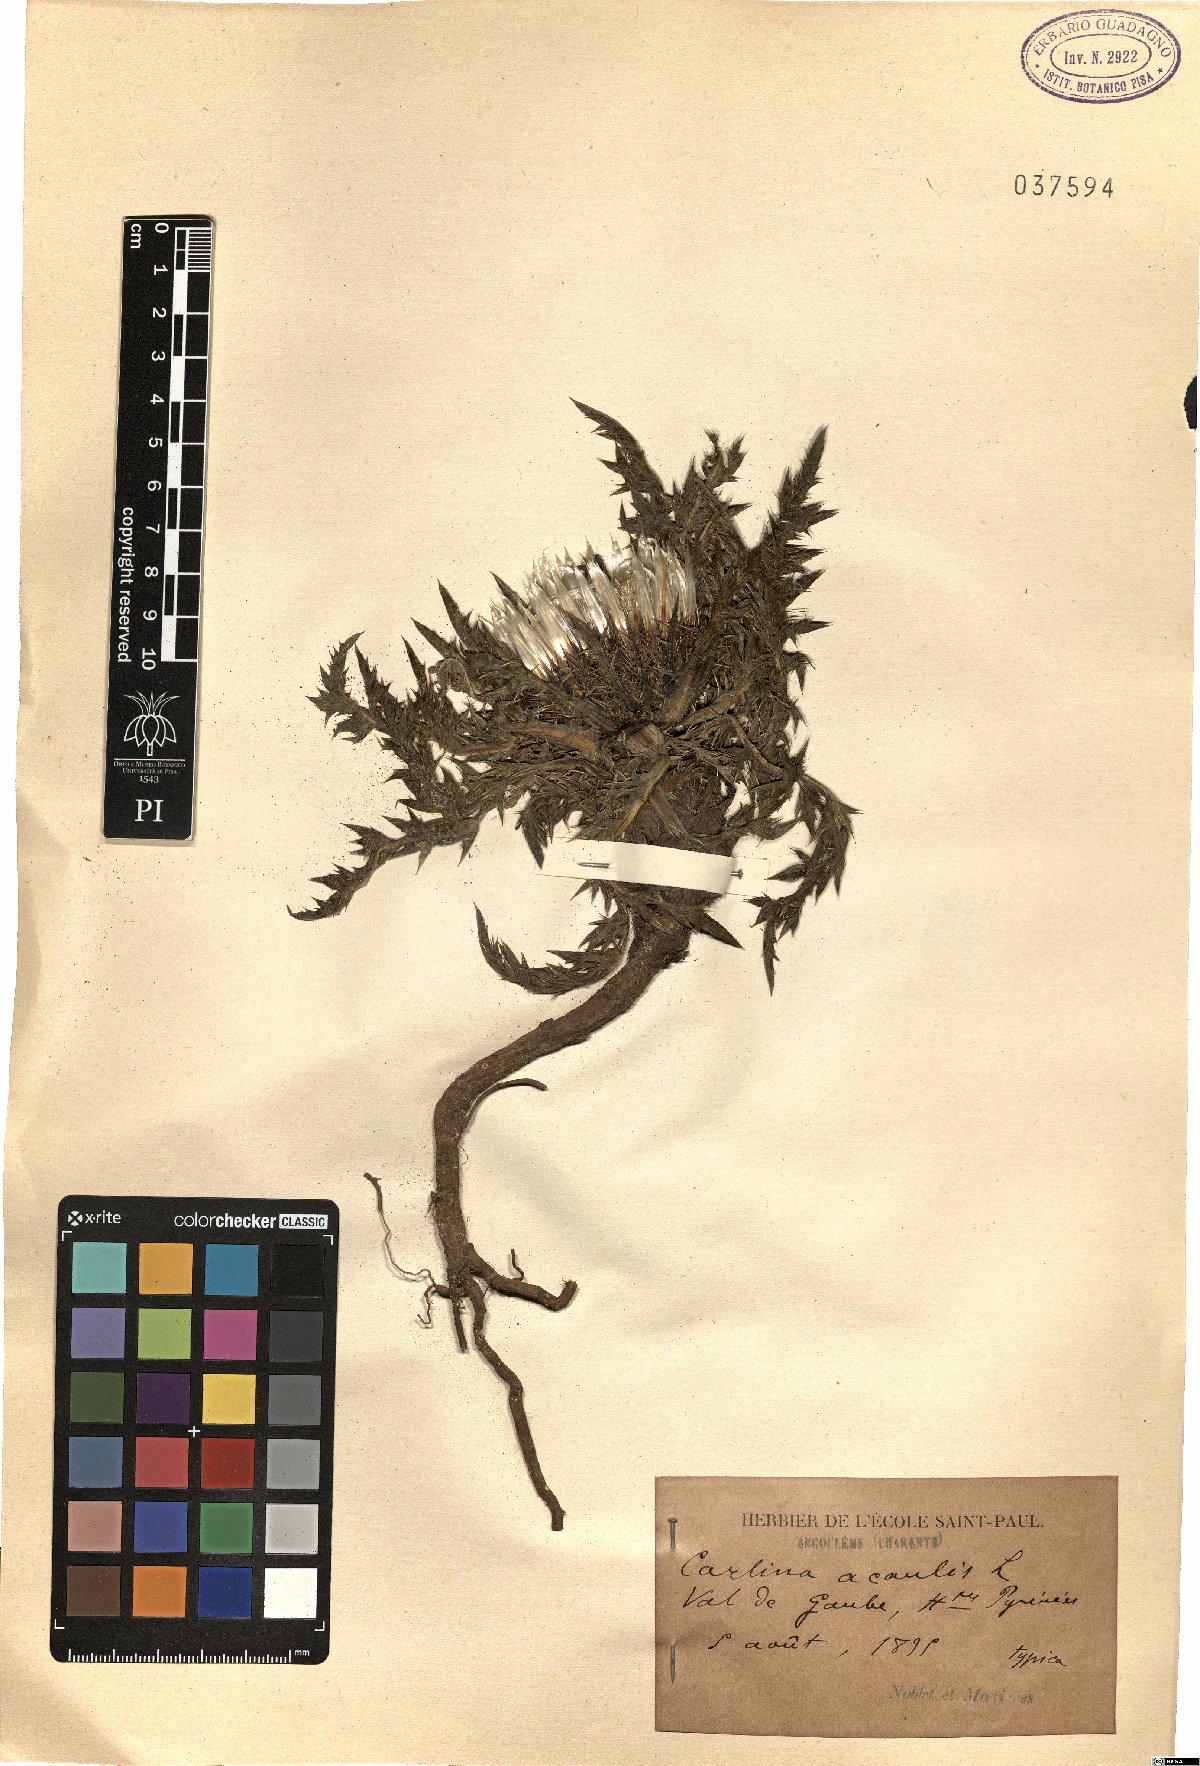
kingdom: Plantae
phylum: Tracheophyta
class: Magnoliopsida
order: Asterales
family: Asteraceae
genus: Carlina
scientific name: Carlina acaulis
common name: Stemless carline thistle
